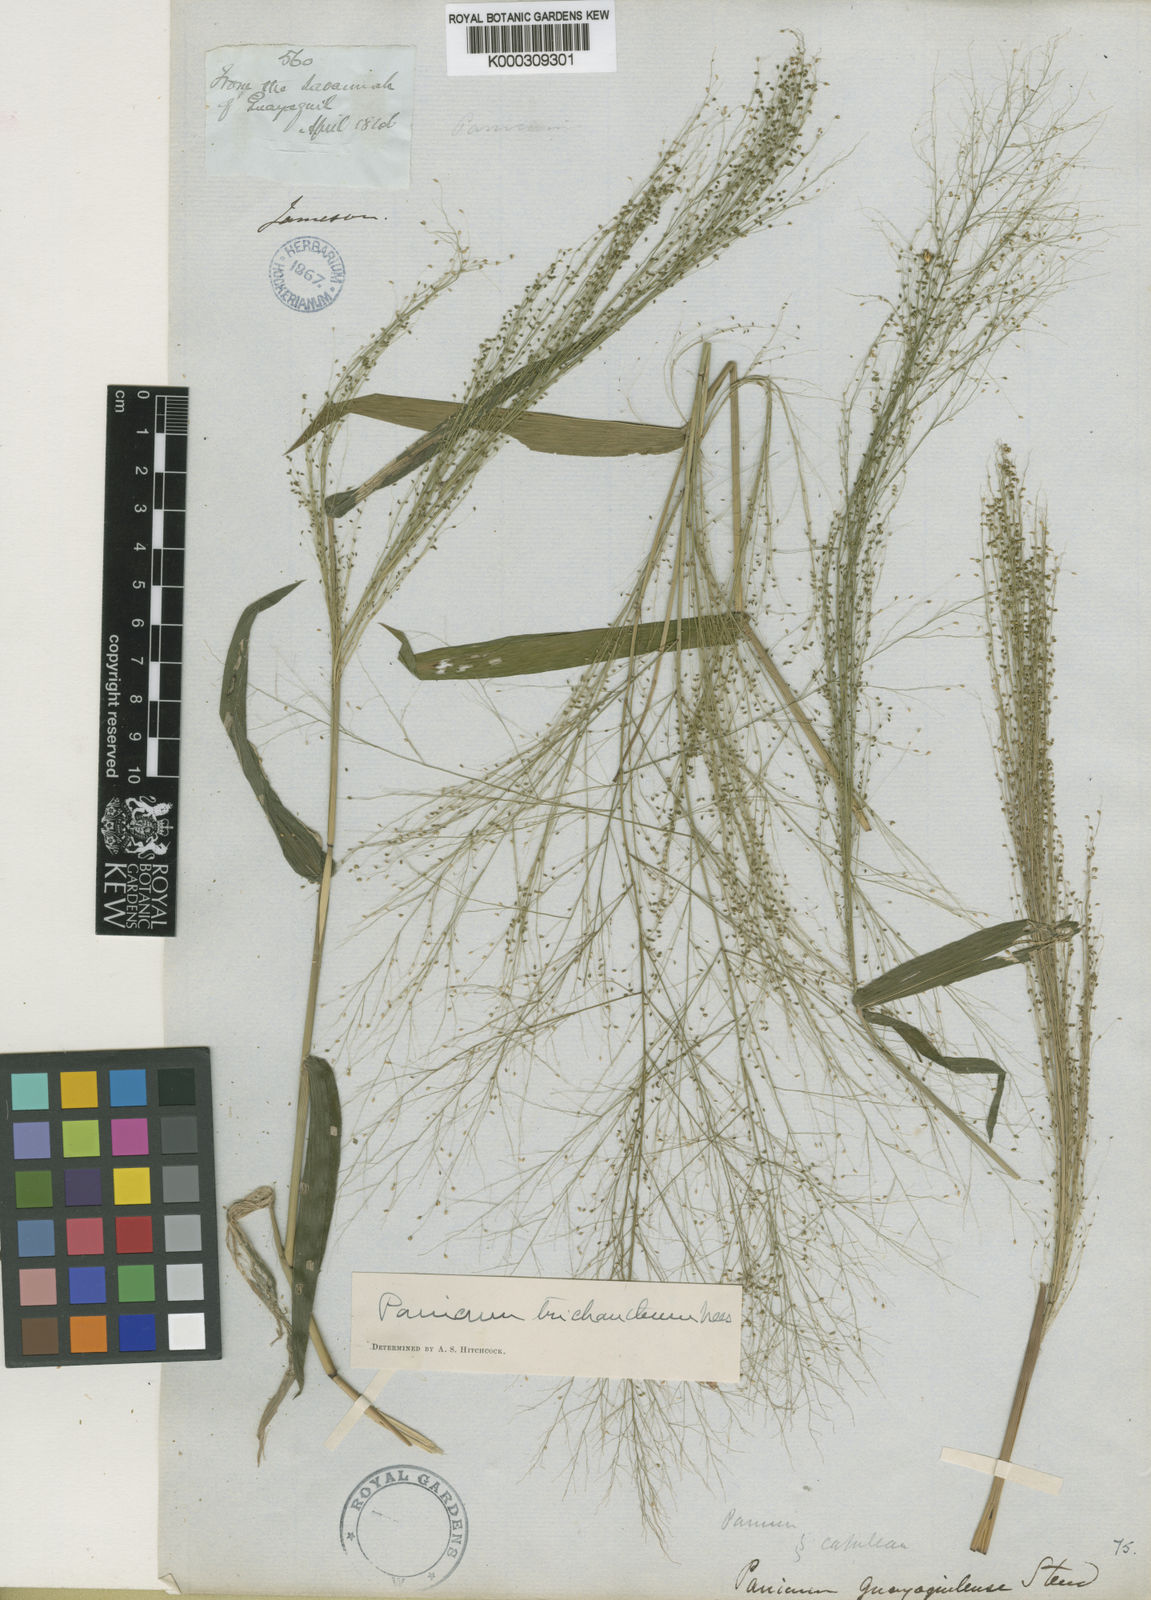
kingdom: Plantae
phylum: Tracheophyta
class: Liliopsida
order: Poales
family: Poaceae
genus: Panicum
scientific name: Panicum trichanthum
